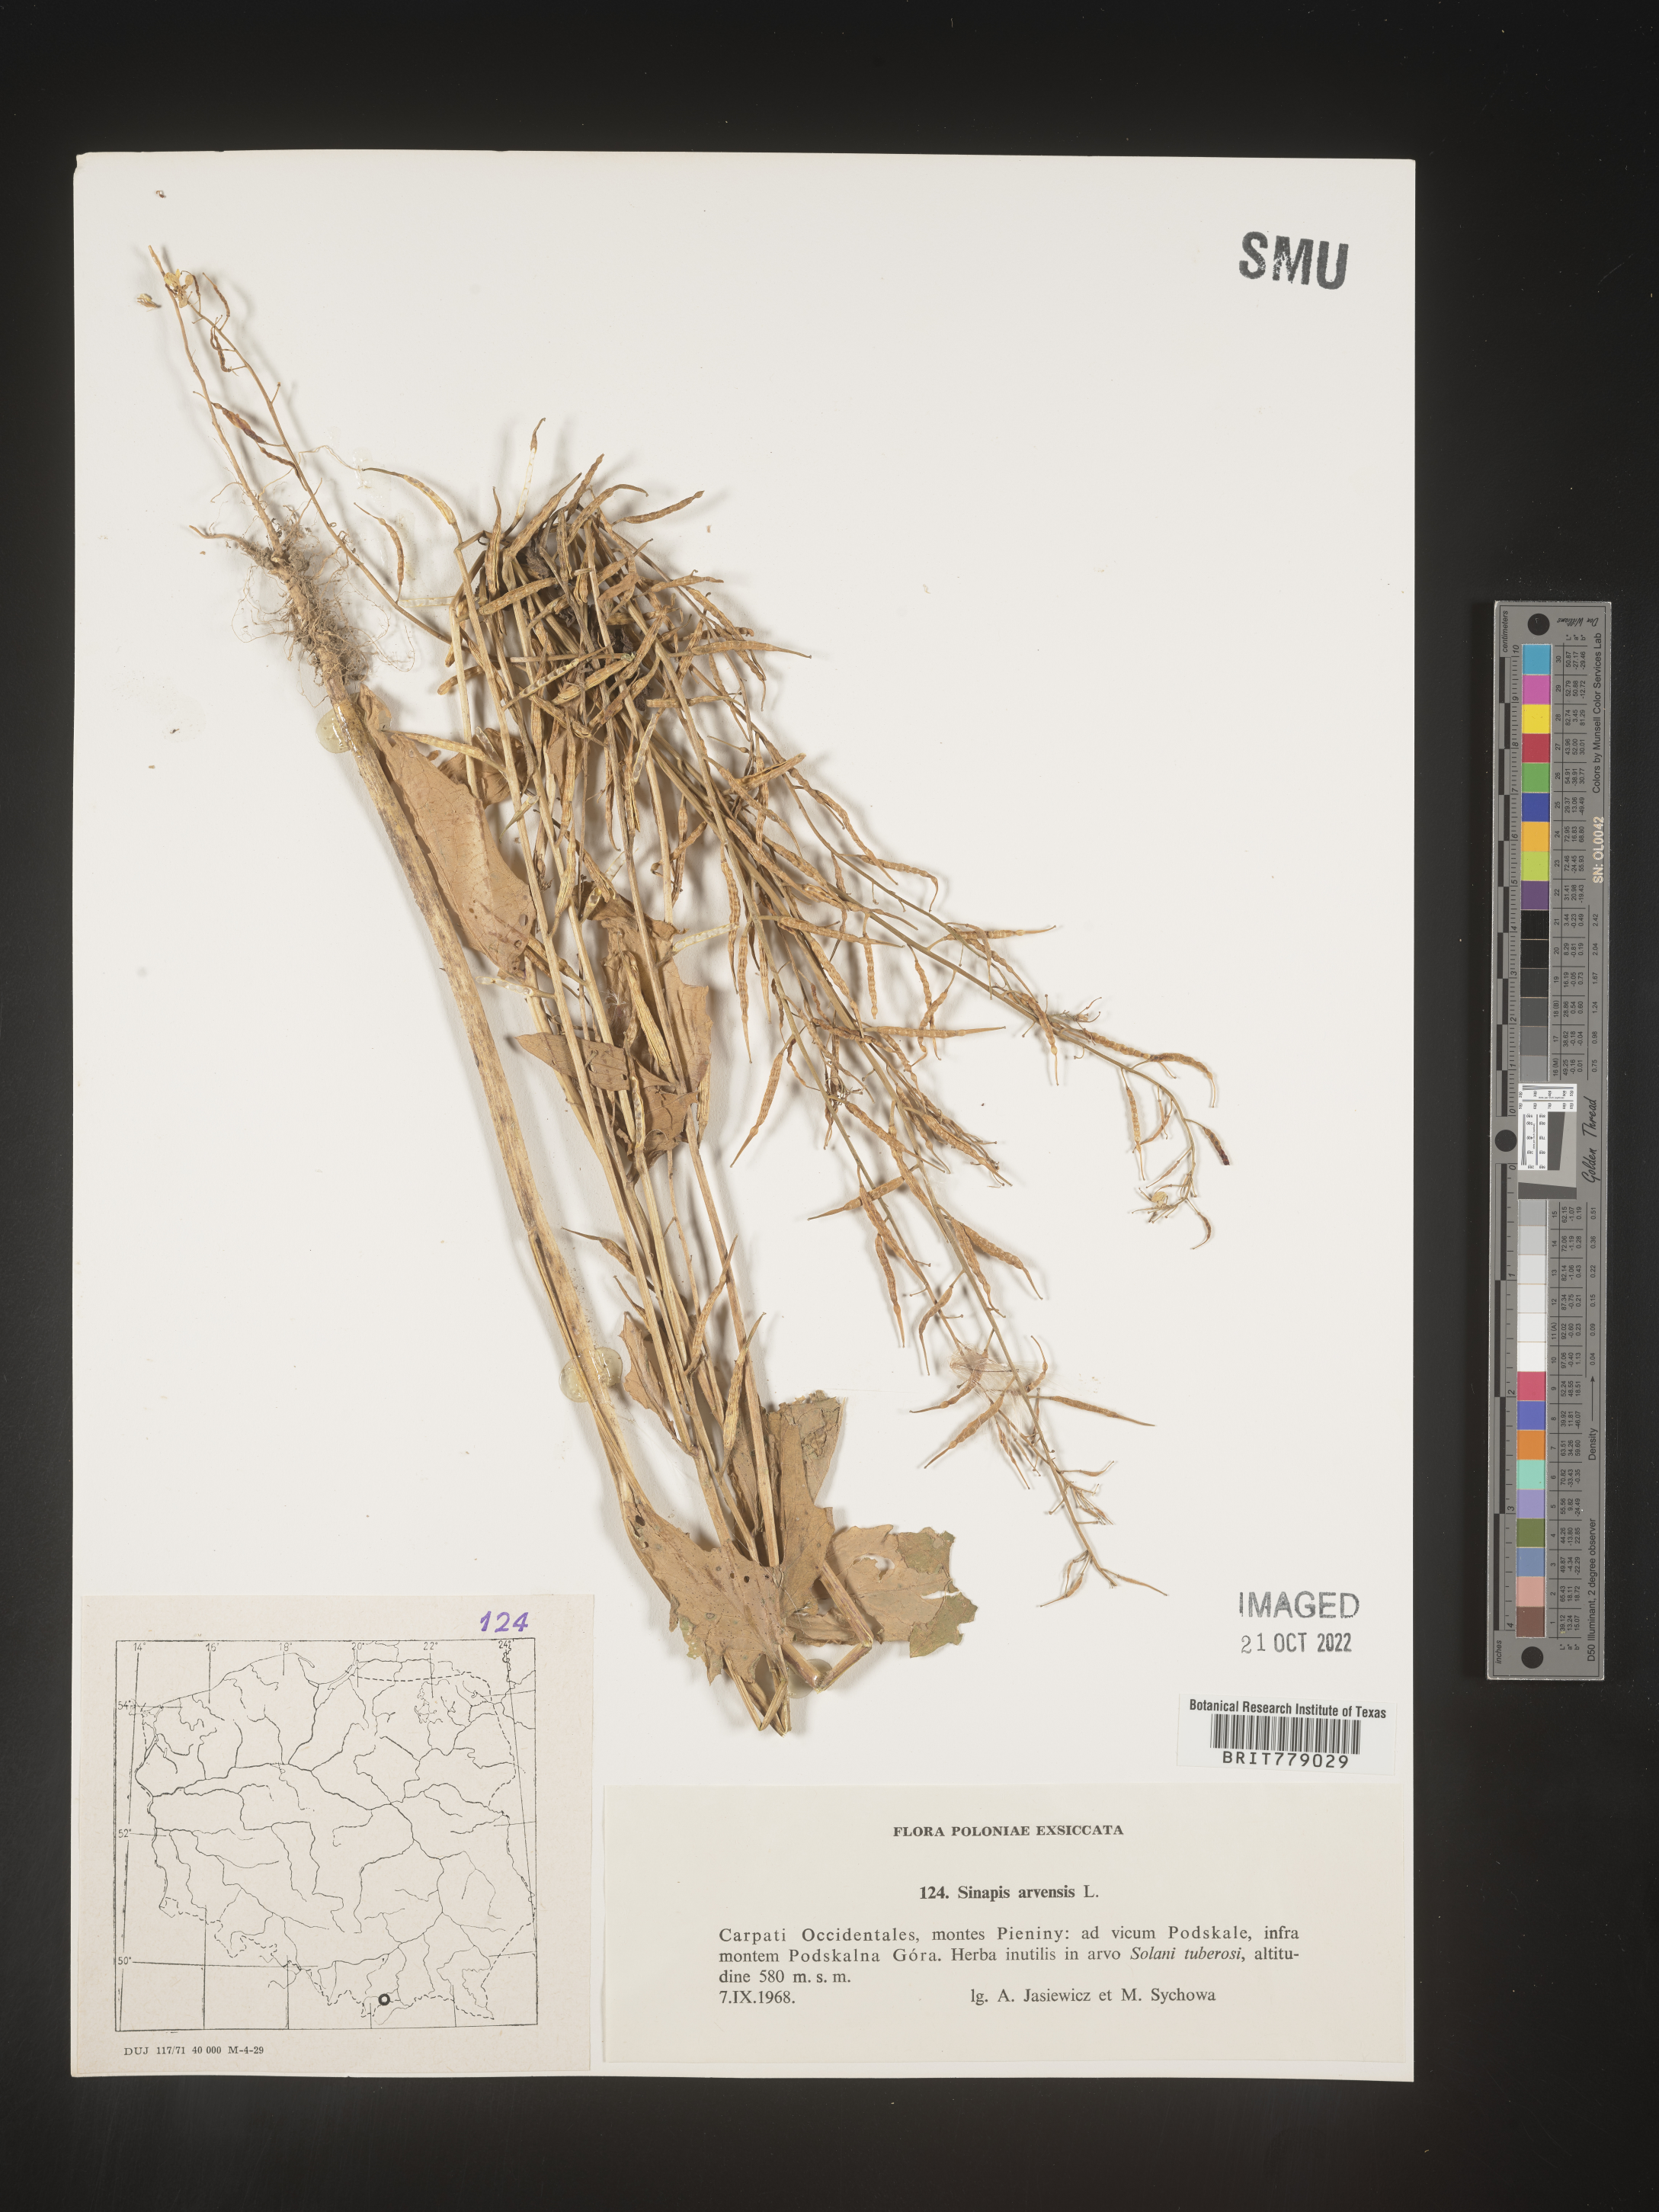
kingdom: Plantae
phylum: Tracheophyta
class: Magnoliopsida
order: Brassicales
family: Brassicaceae
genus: Sinapis
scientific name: Sinapis
